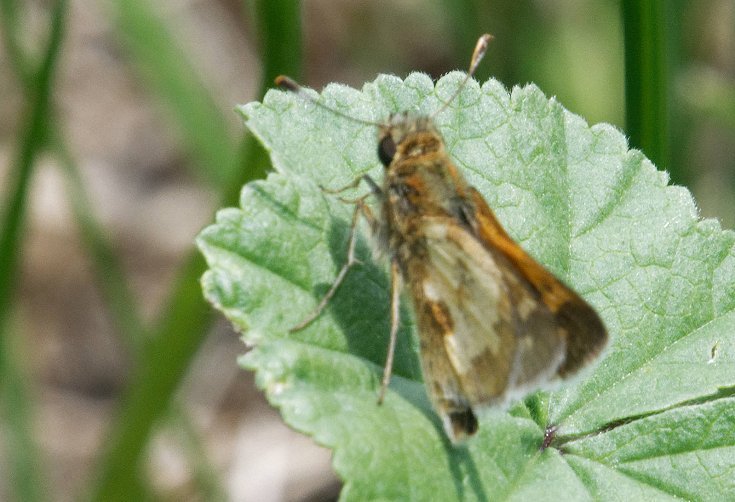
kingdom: Animalia
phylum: Arthropoda
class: Insecta
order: Lepidoptera
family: Hesperiidae
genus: Polites
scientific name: Polites coras
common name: Peck's Skipper
